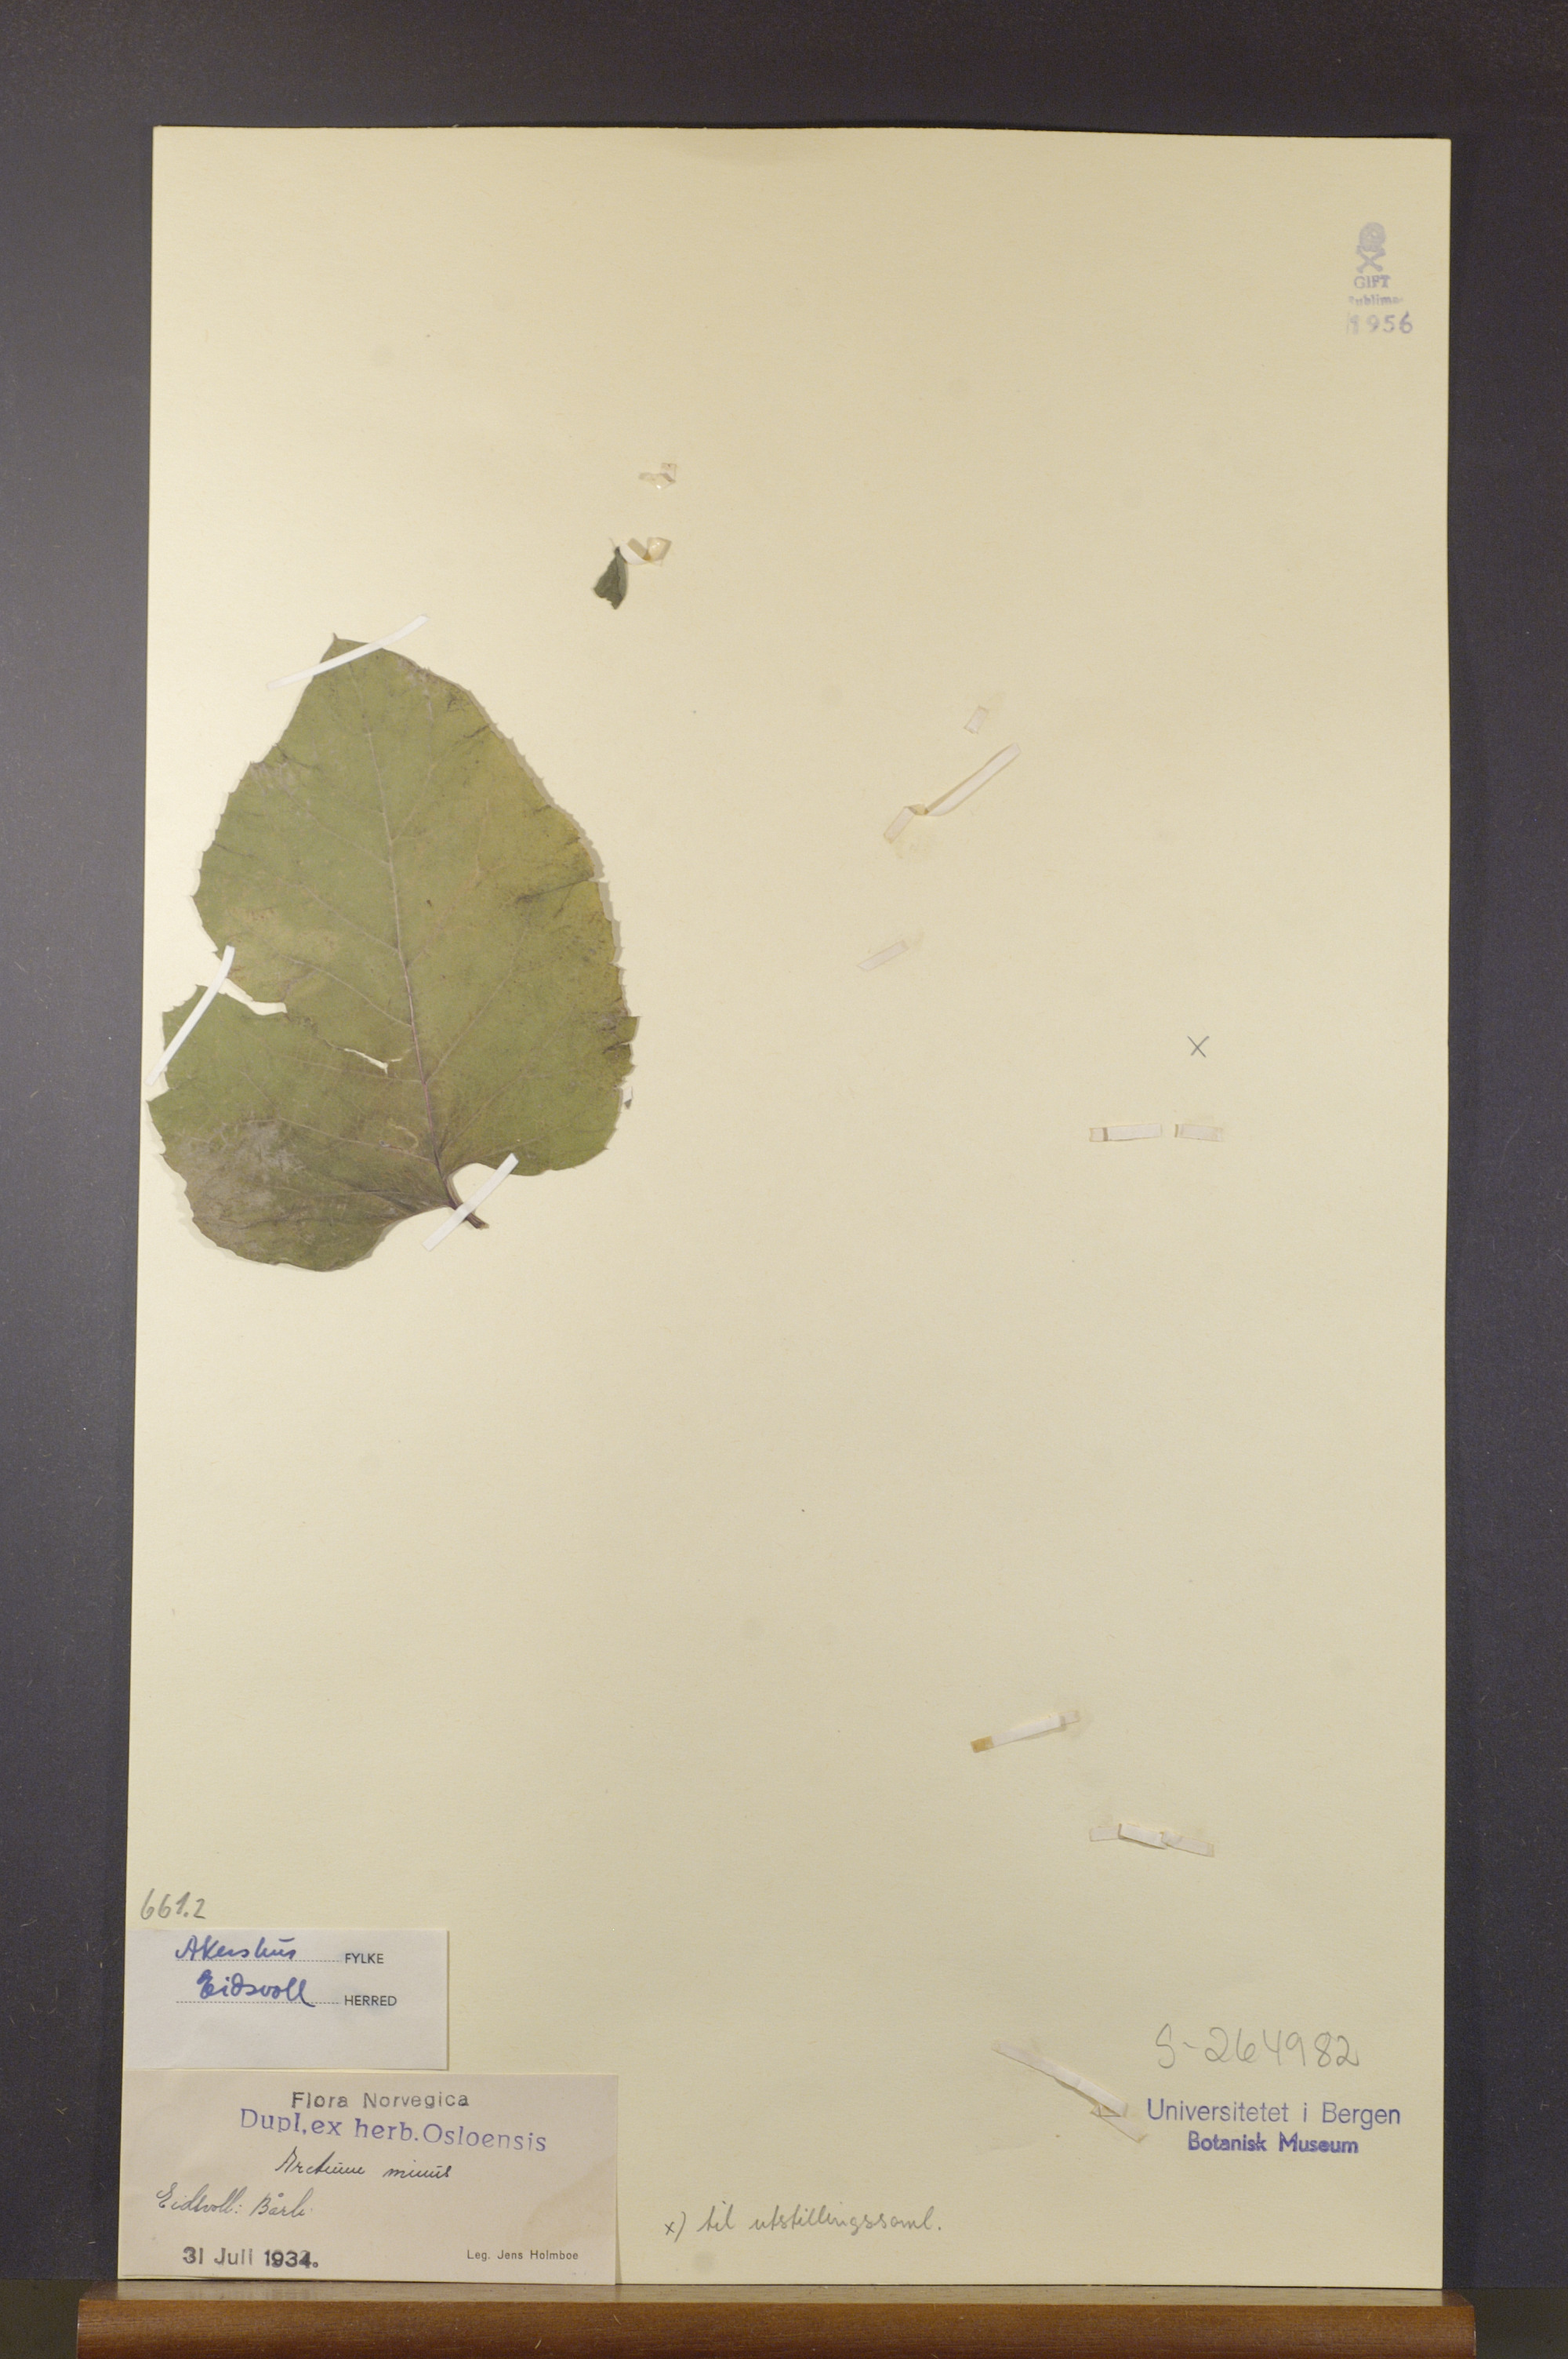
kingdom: Plantae
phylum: Tracheophyta
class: Magnoliopsida
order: Asterales
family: Asteraceae
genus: Arctium
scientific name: Arctium minus
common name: Lesser burdock
